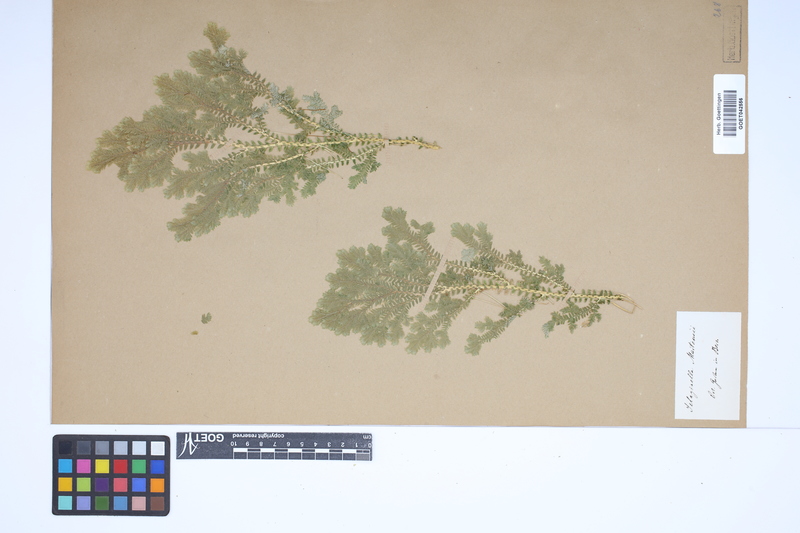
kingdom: Plantae
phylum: Tracheophyta
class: Lycopodiopsida
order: Selaginellales
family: Selaginellaceae
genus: Selaginella
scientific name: Selaginella martensii
